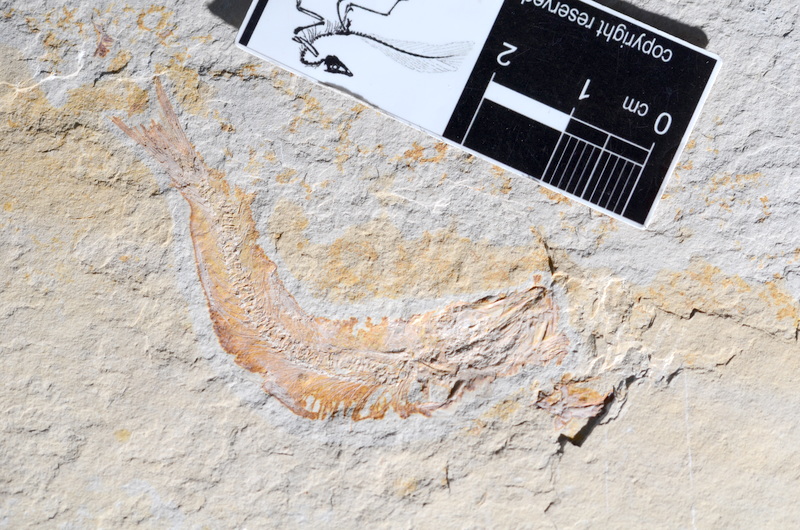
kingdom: Animalia
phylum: Chordata
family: Ascalaboidae
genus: Tharsis
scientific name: Tharsis dubius
